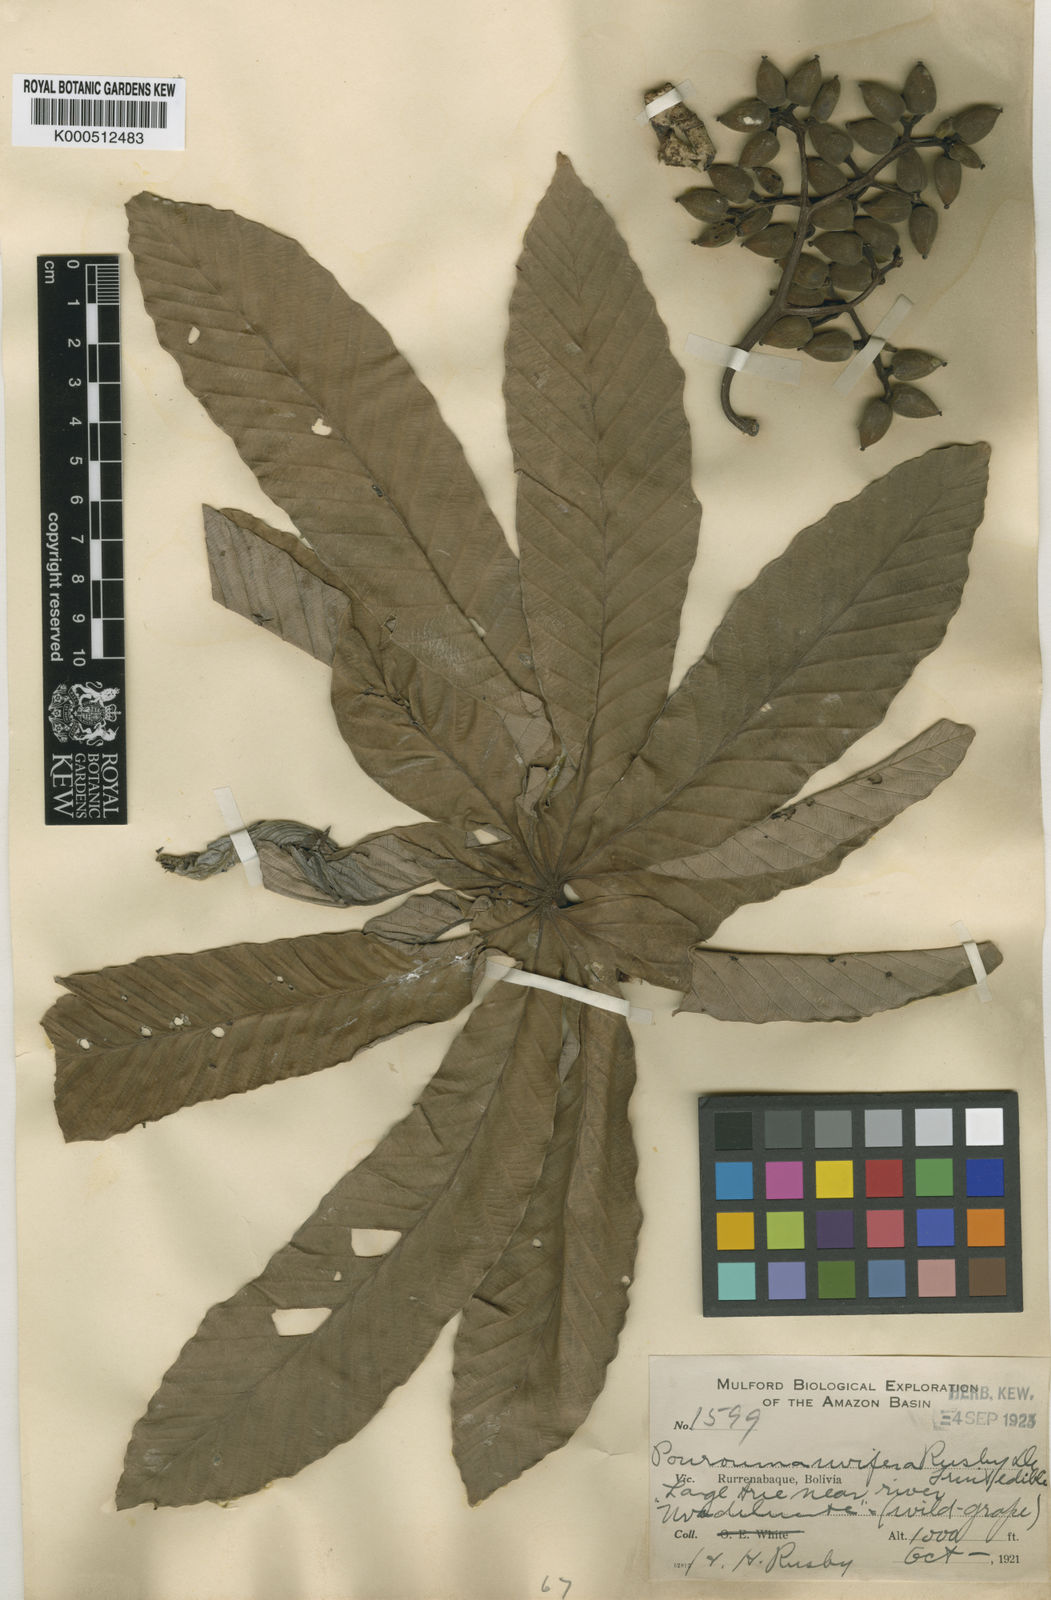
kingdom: Plantae
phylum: Tracheophyta
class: Magnoliopsida
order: Rosales
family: Urticaceae
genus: Pourouma
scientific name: Pourouma cecropiifolia
